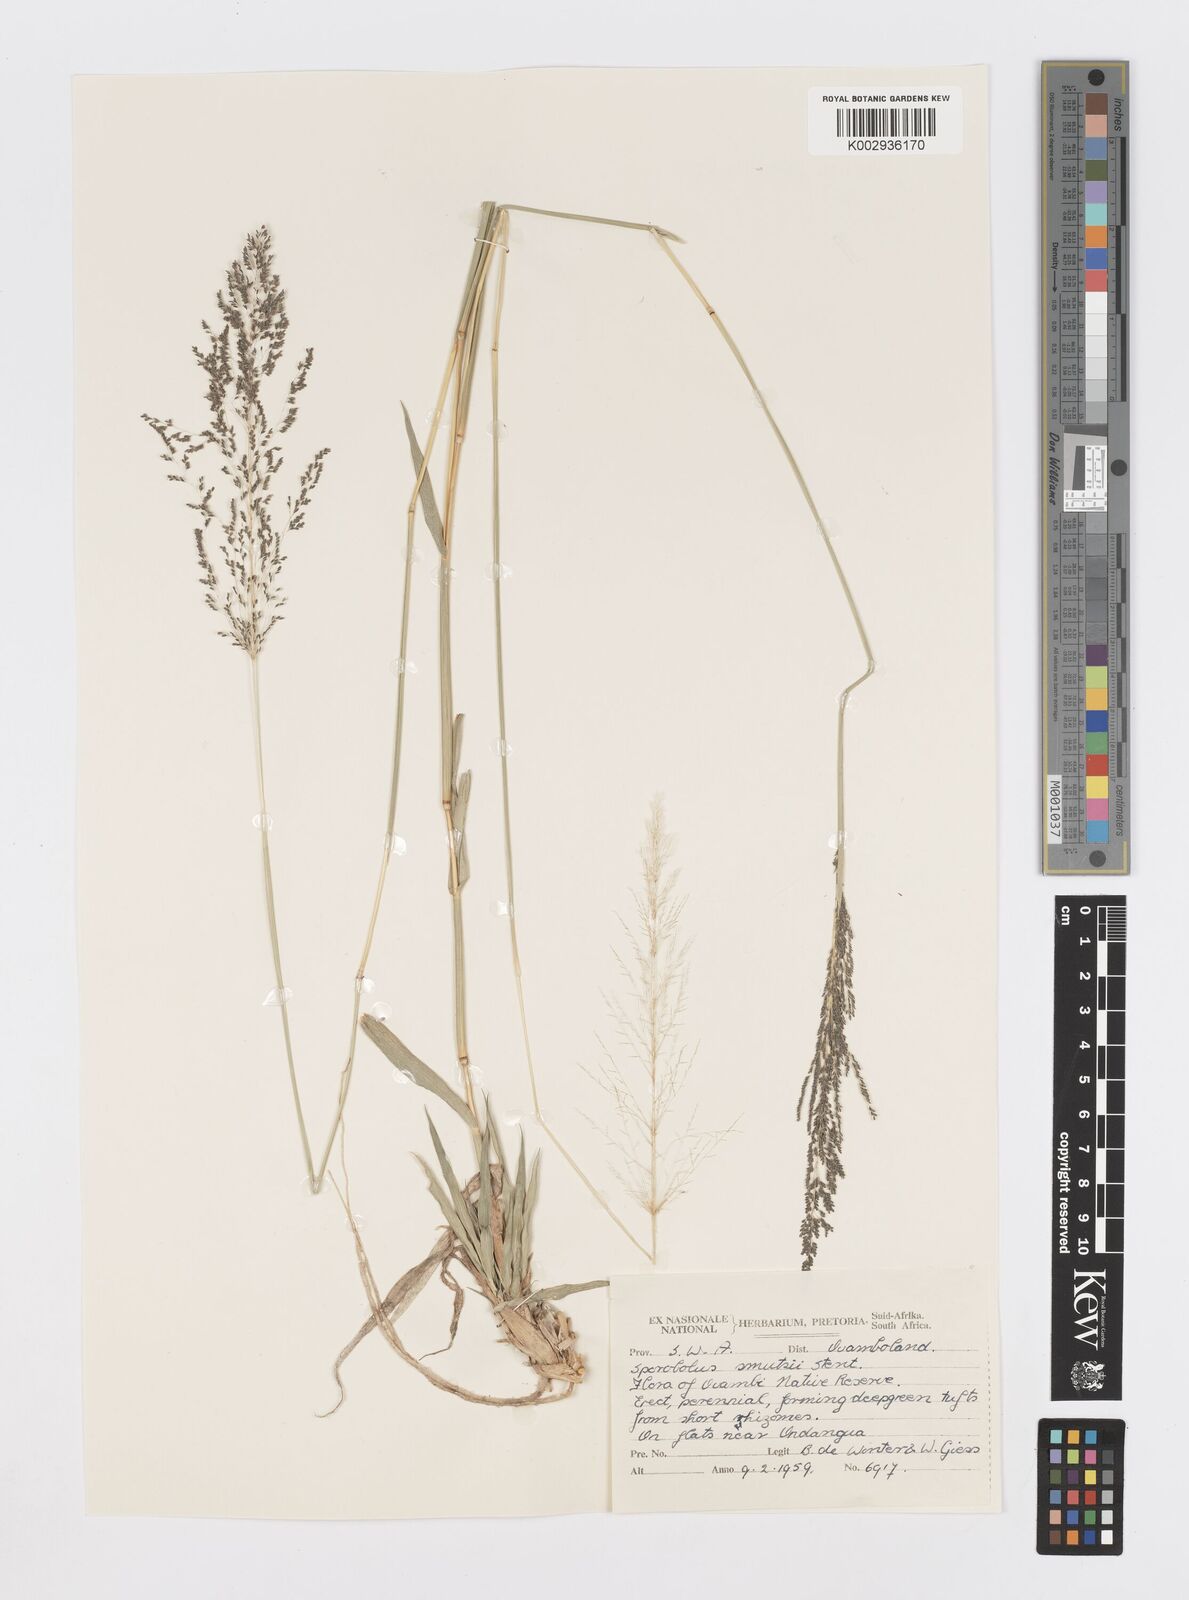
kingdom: Plantae
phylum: Tracheophyta
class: Liliopsida
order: Poales
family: Poaceae
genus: Sporobolus
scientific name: Sporobolus ioclados
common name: Pan dropseed
